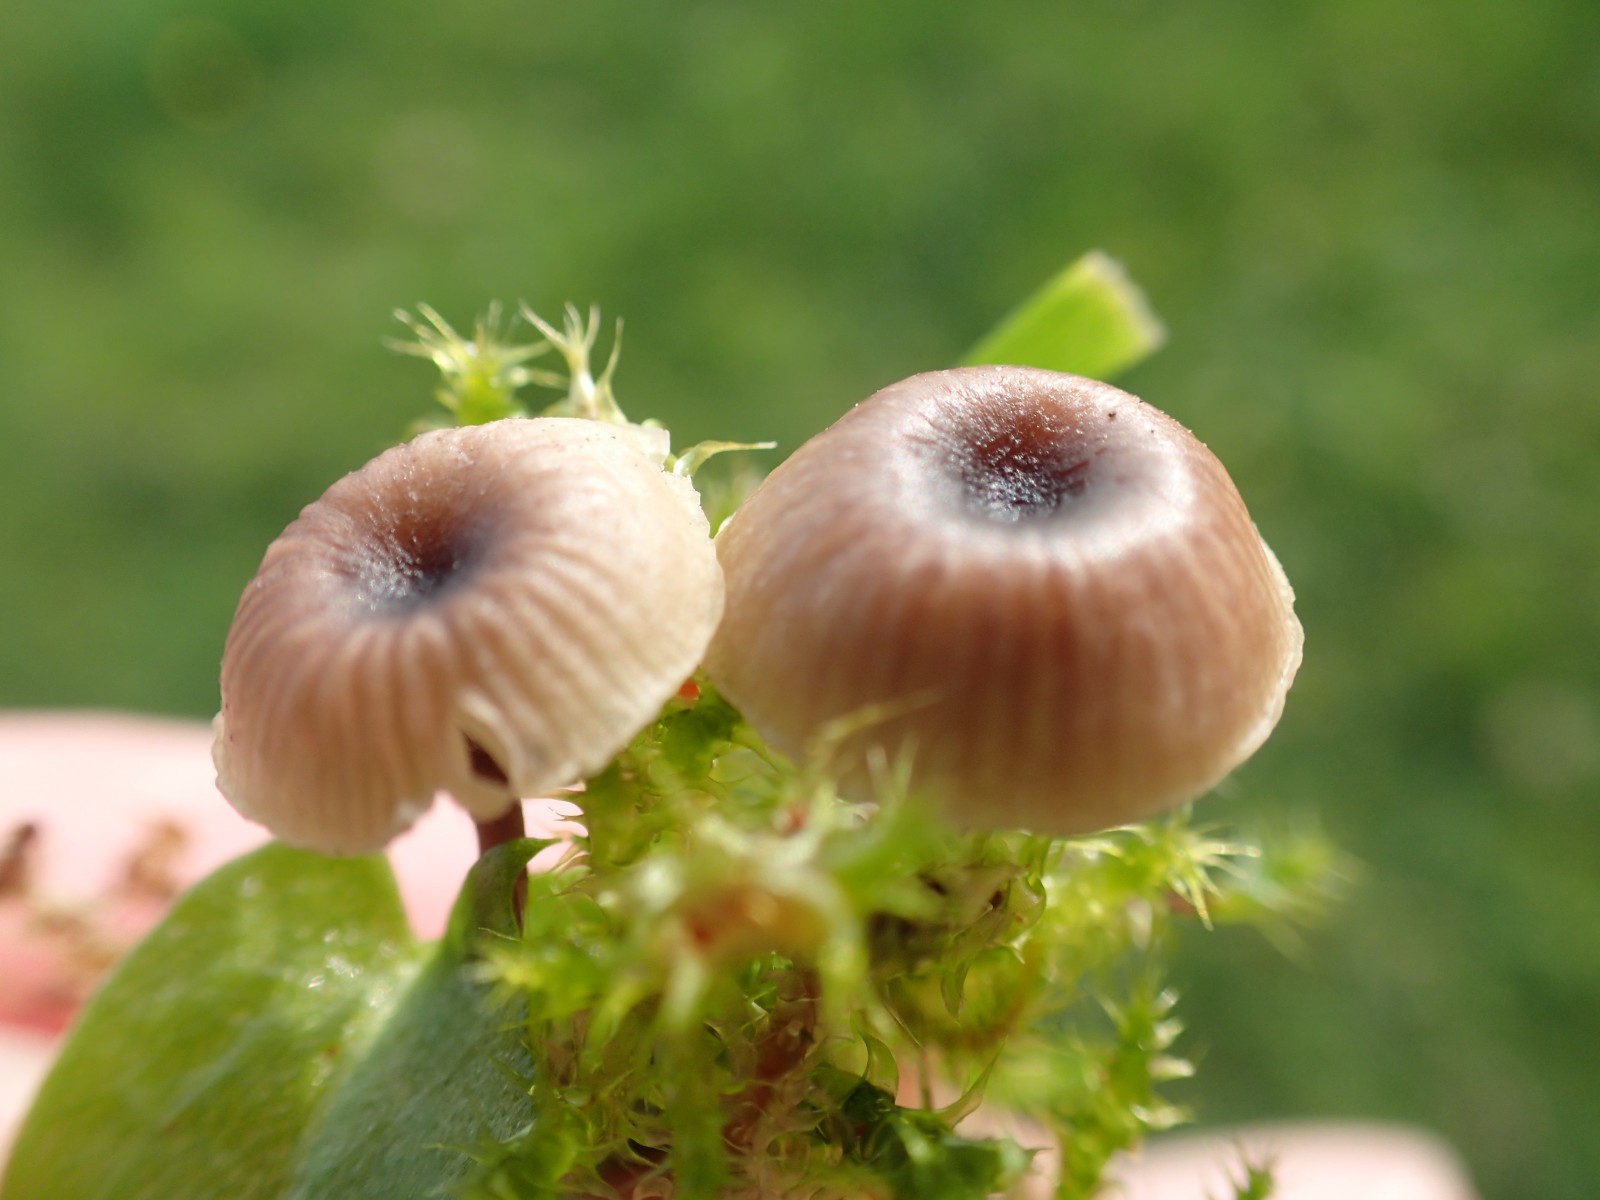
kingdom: Fungi
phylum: Basidiomycota
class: Agaricomycetes
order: Hymenochaetales
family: Rickenellaceae
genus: Rickenella
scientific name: Rickenella swartzii
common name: finstokket mosnavlehat
